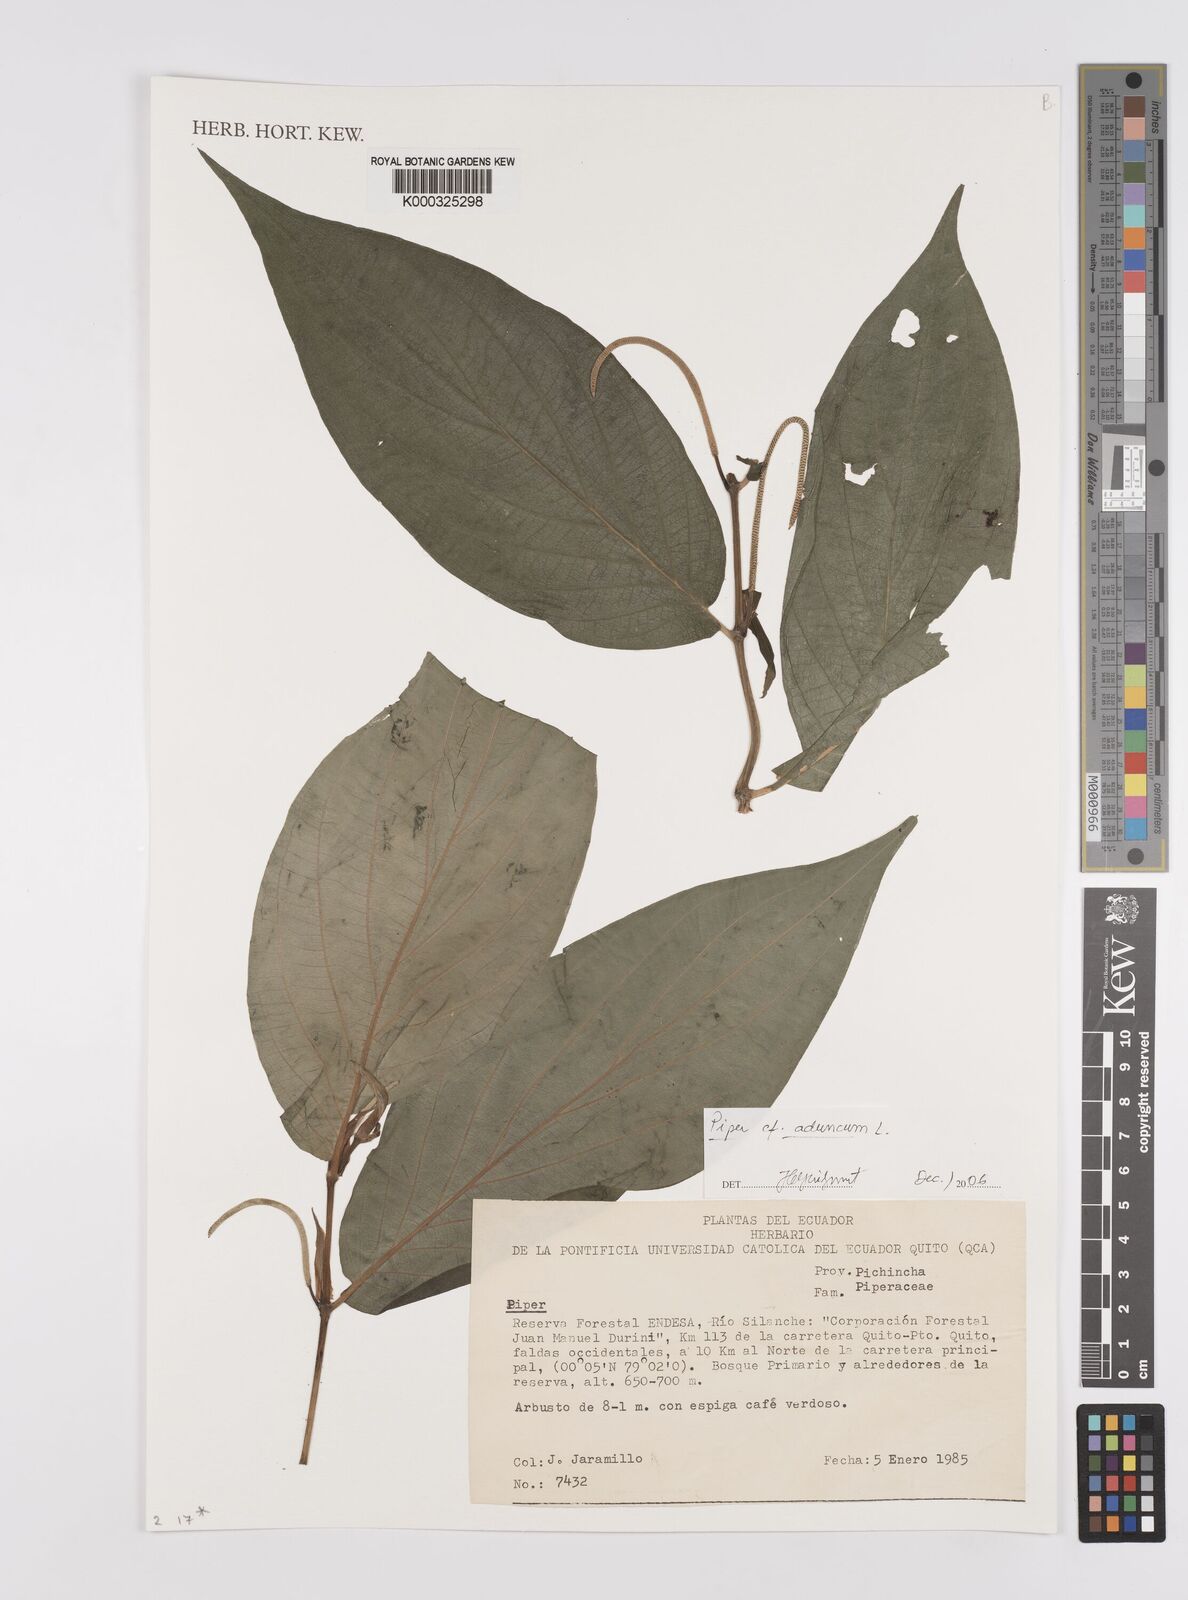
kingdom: Plantae
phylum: Tracheophyta
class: Magnoliopsida
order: Piperales
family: Piperaceae
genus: Piper
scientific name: Piper aduncum
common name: Spiked pepper
